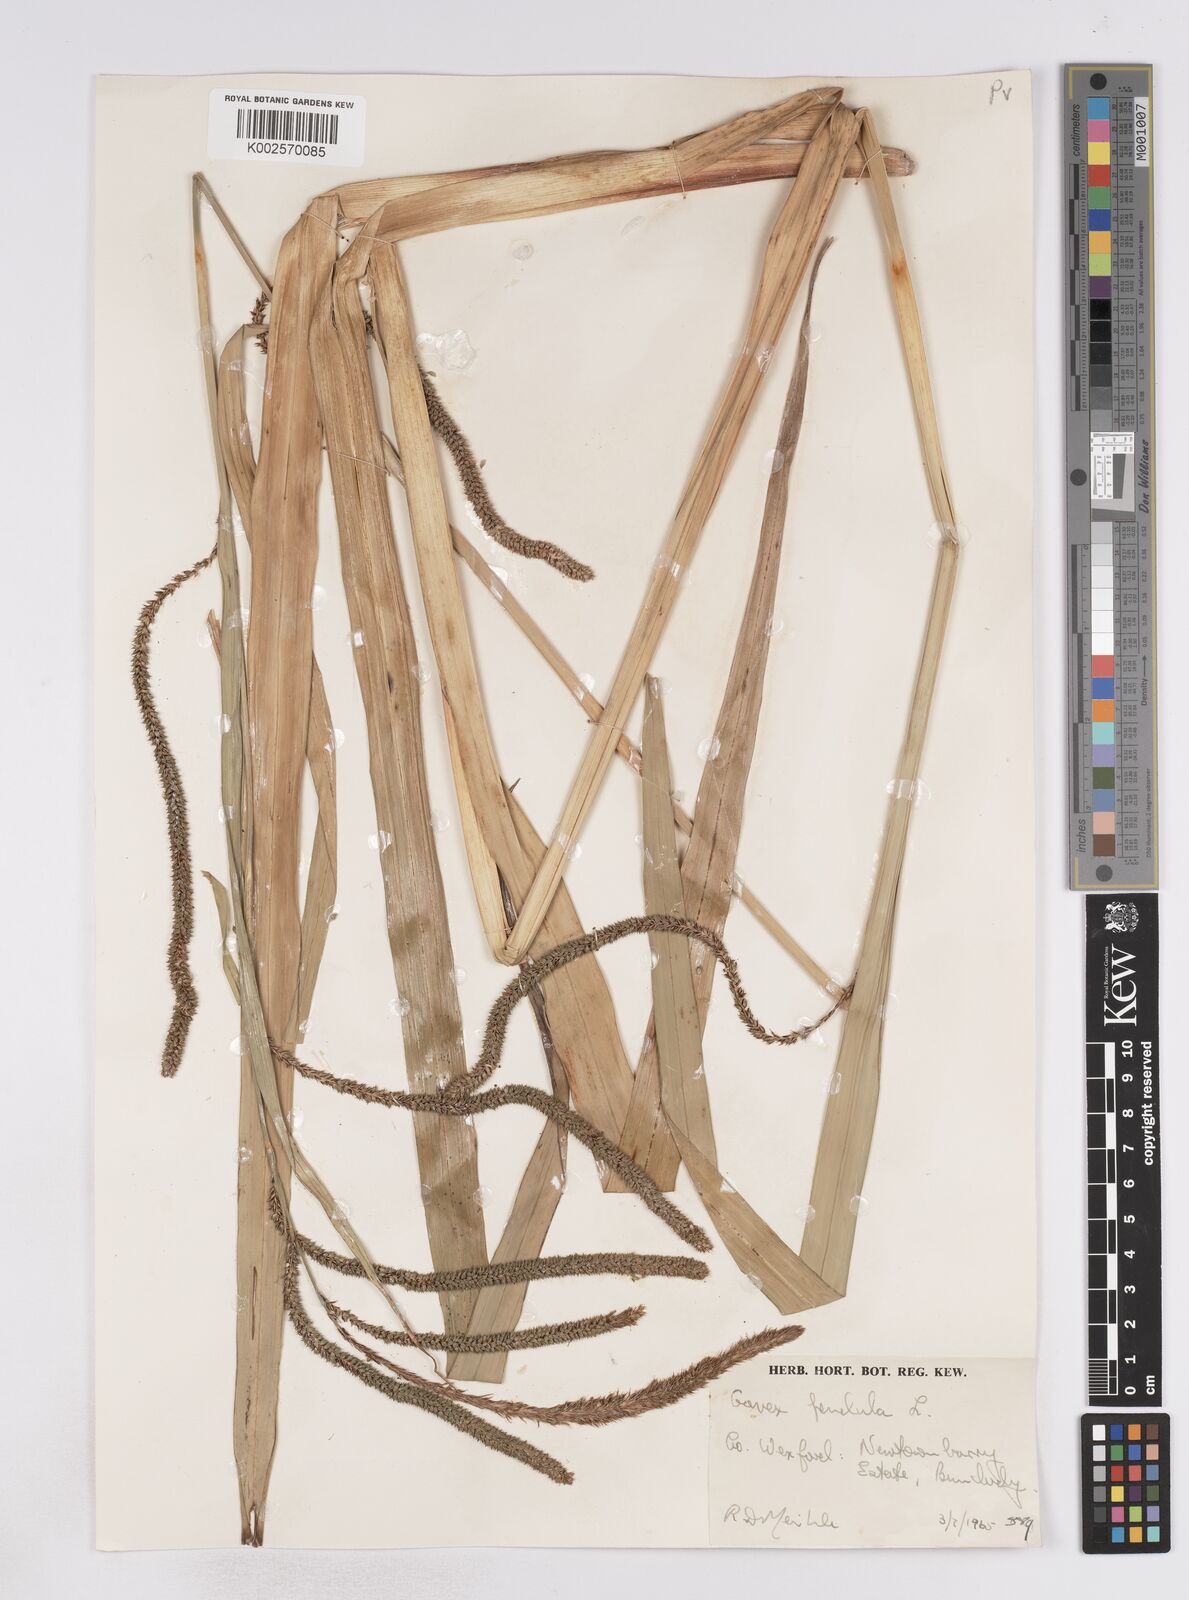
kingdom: Plantae
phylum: Tracheophyta
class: Liliopsida
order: Poales
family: Cyperaceae
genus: Carex
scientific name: Carex pendula
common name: Pendulous sedge
